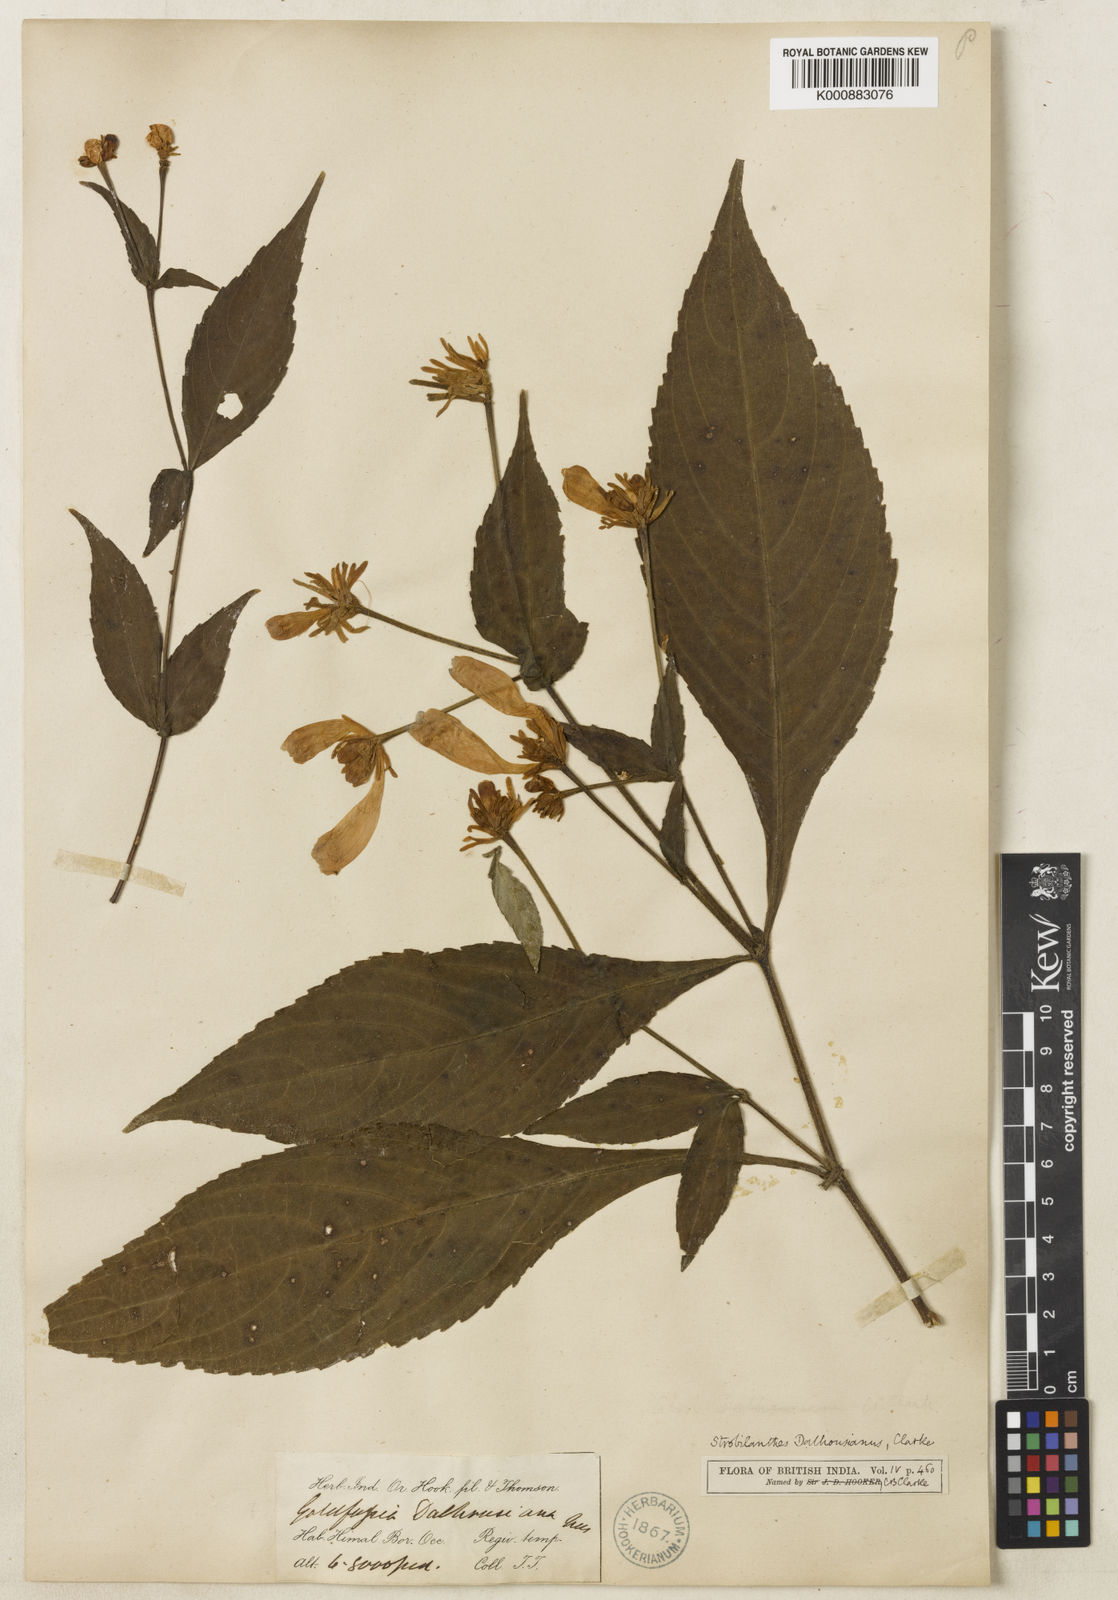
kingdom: Plantae
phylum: Tracheophyta
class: Magnoliopsida
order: Lamiales
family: Acanthaceae
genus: Strobilanthes
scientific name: Strobilanthes
